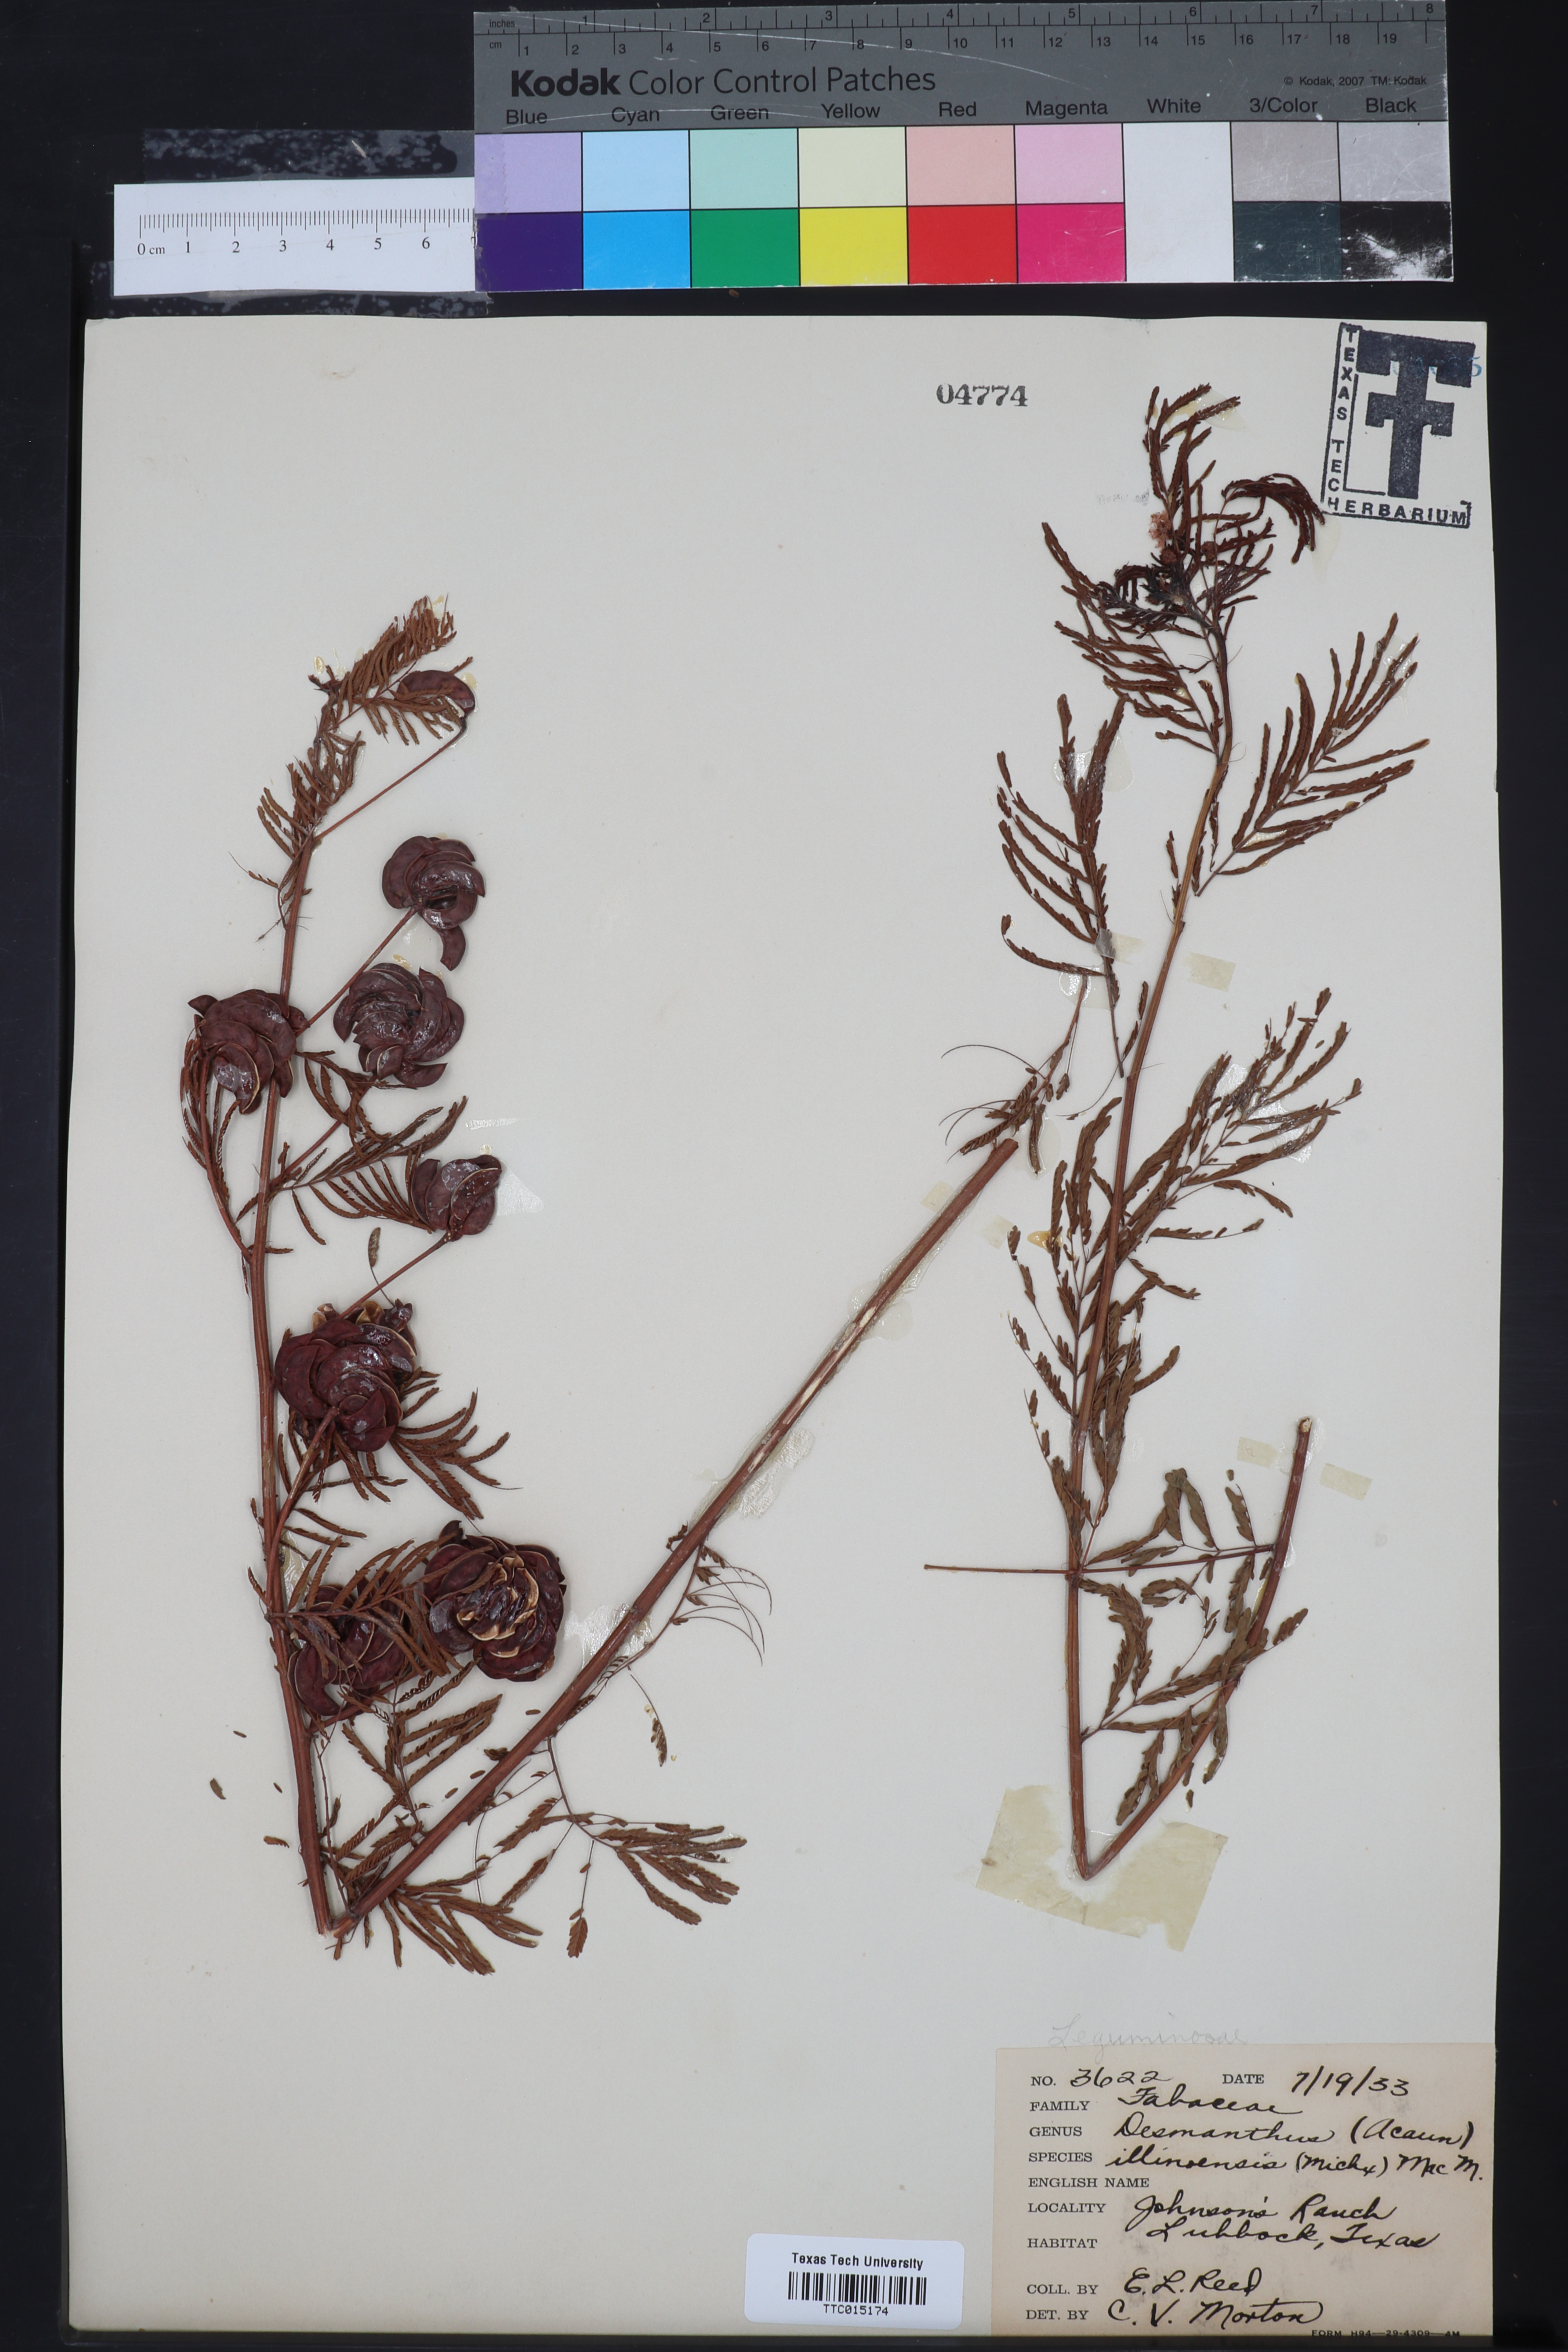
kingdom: Plantae
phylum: Tracheophyta
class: Magnoliopsida
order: Fabales
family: Fabaceae
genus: Desmanthus
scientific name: Desmanthus illinoensis
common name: Illinois bundle-flower
